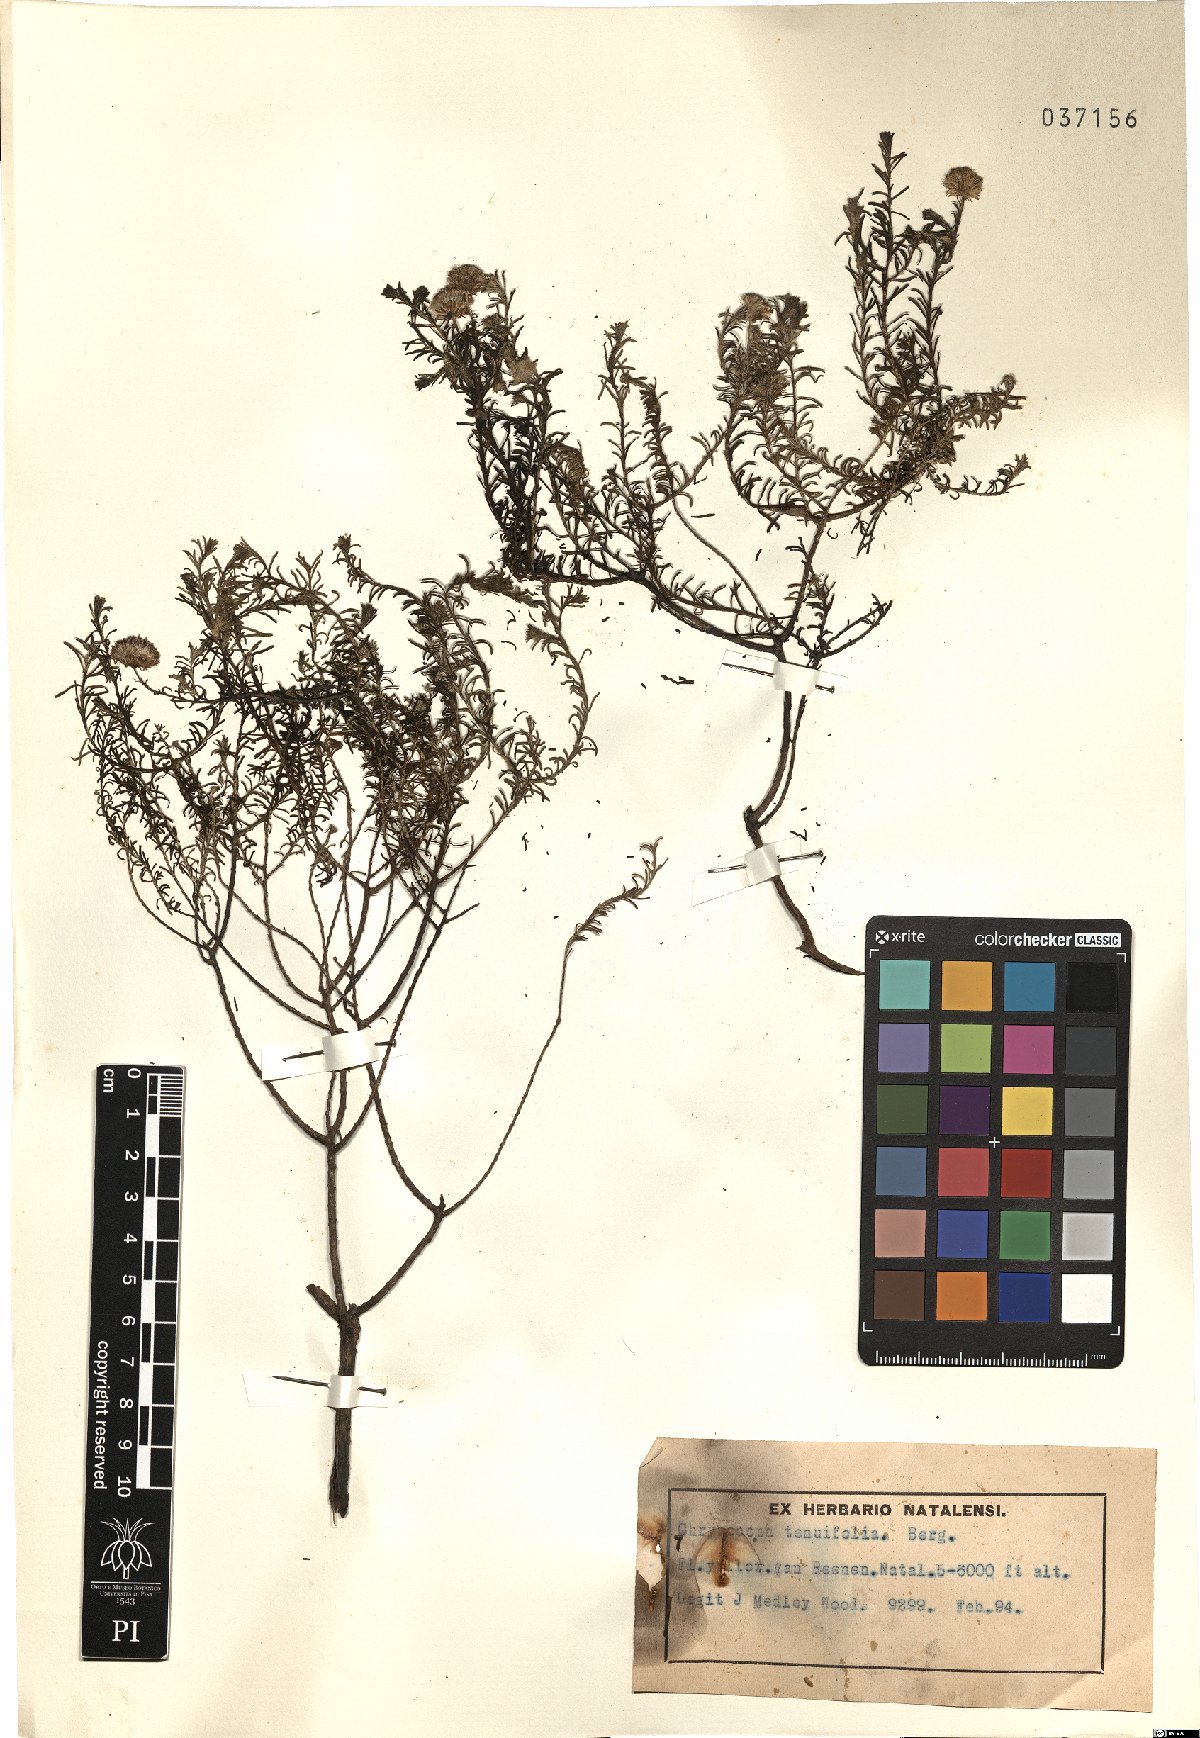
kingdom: Plantae
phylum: Tracheophyta
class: Magnoliopsida
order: Asterales
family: Asteraceae
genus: Chrysocoma
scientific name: Chrysocoma ciliata
